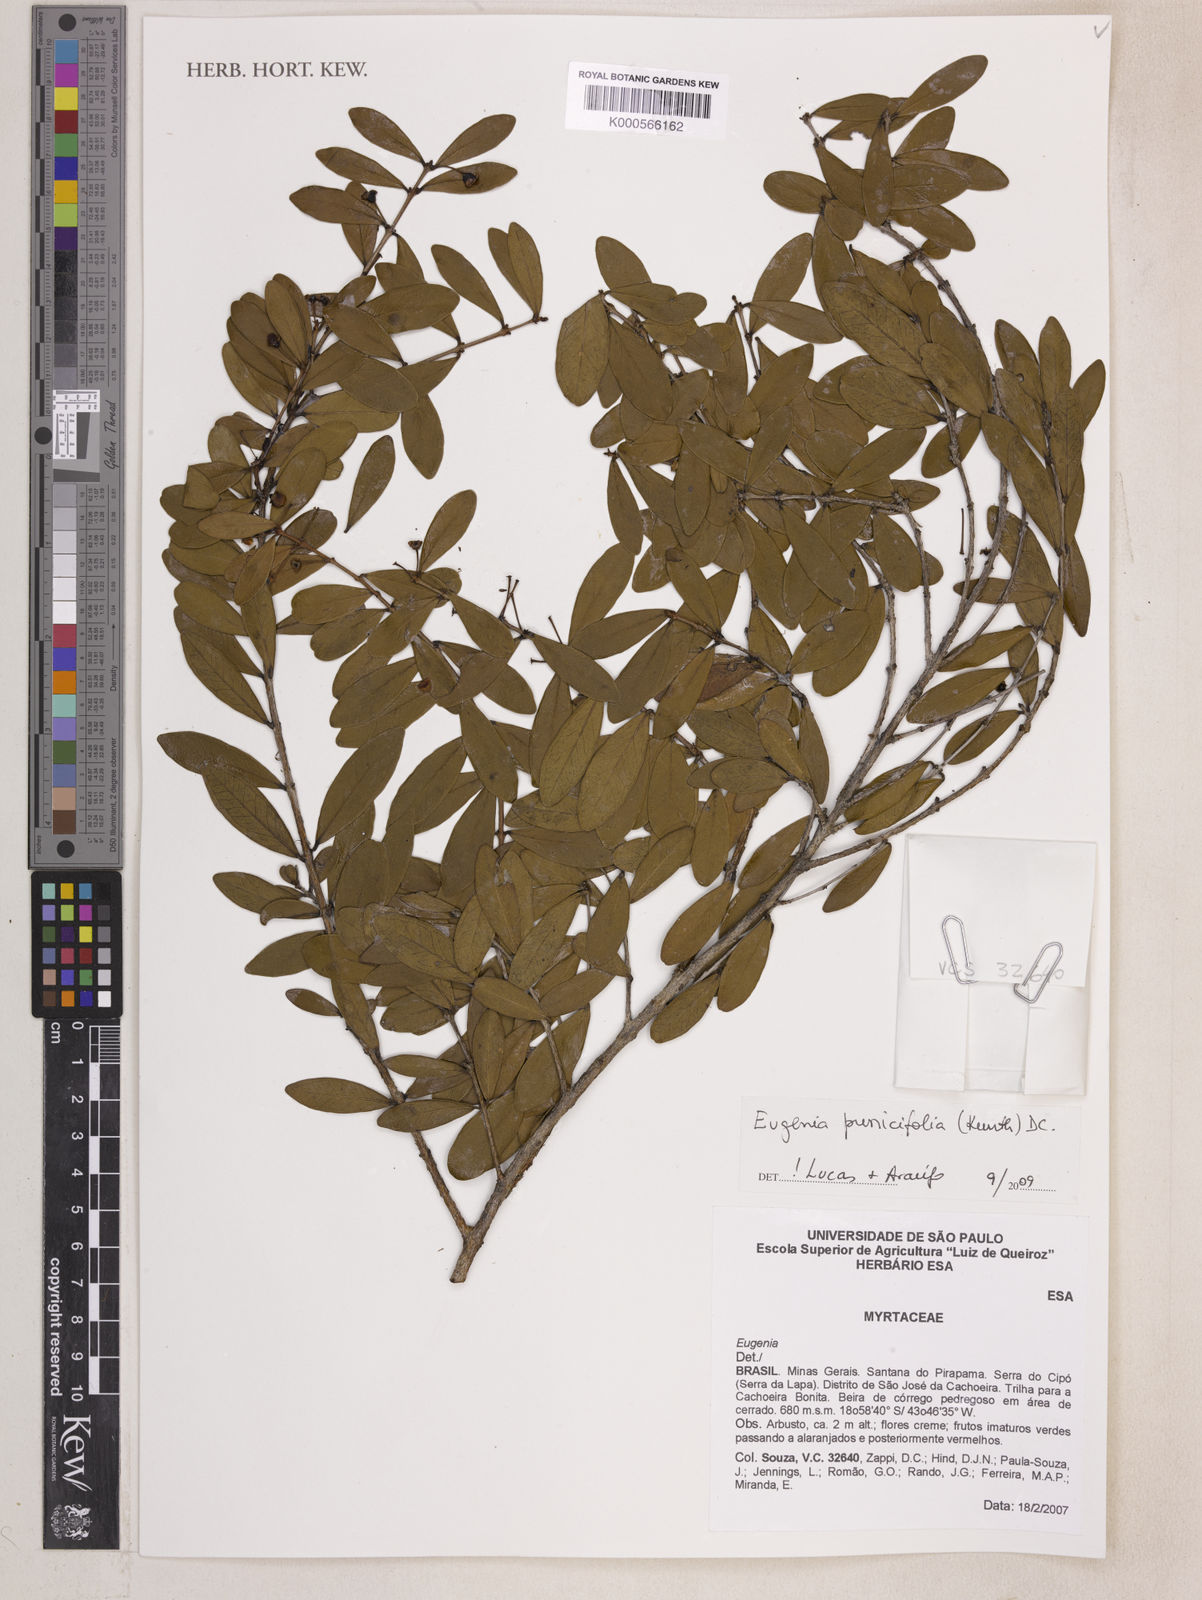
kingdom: Plantae
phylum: Tracheophyta
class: Magnoliopsida
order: Myrtales
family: Myrtaceae
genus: Eugenia
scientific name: Eugenia punicifolia
